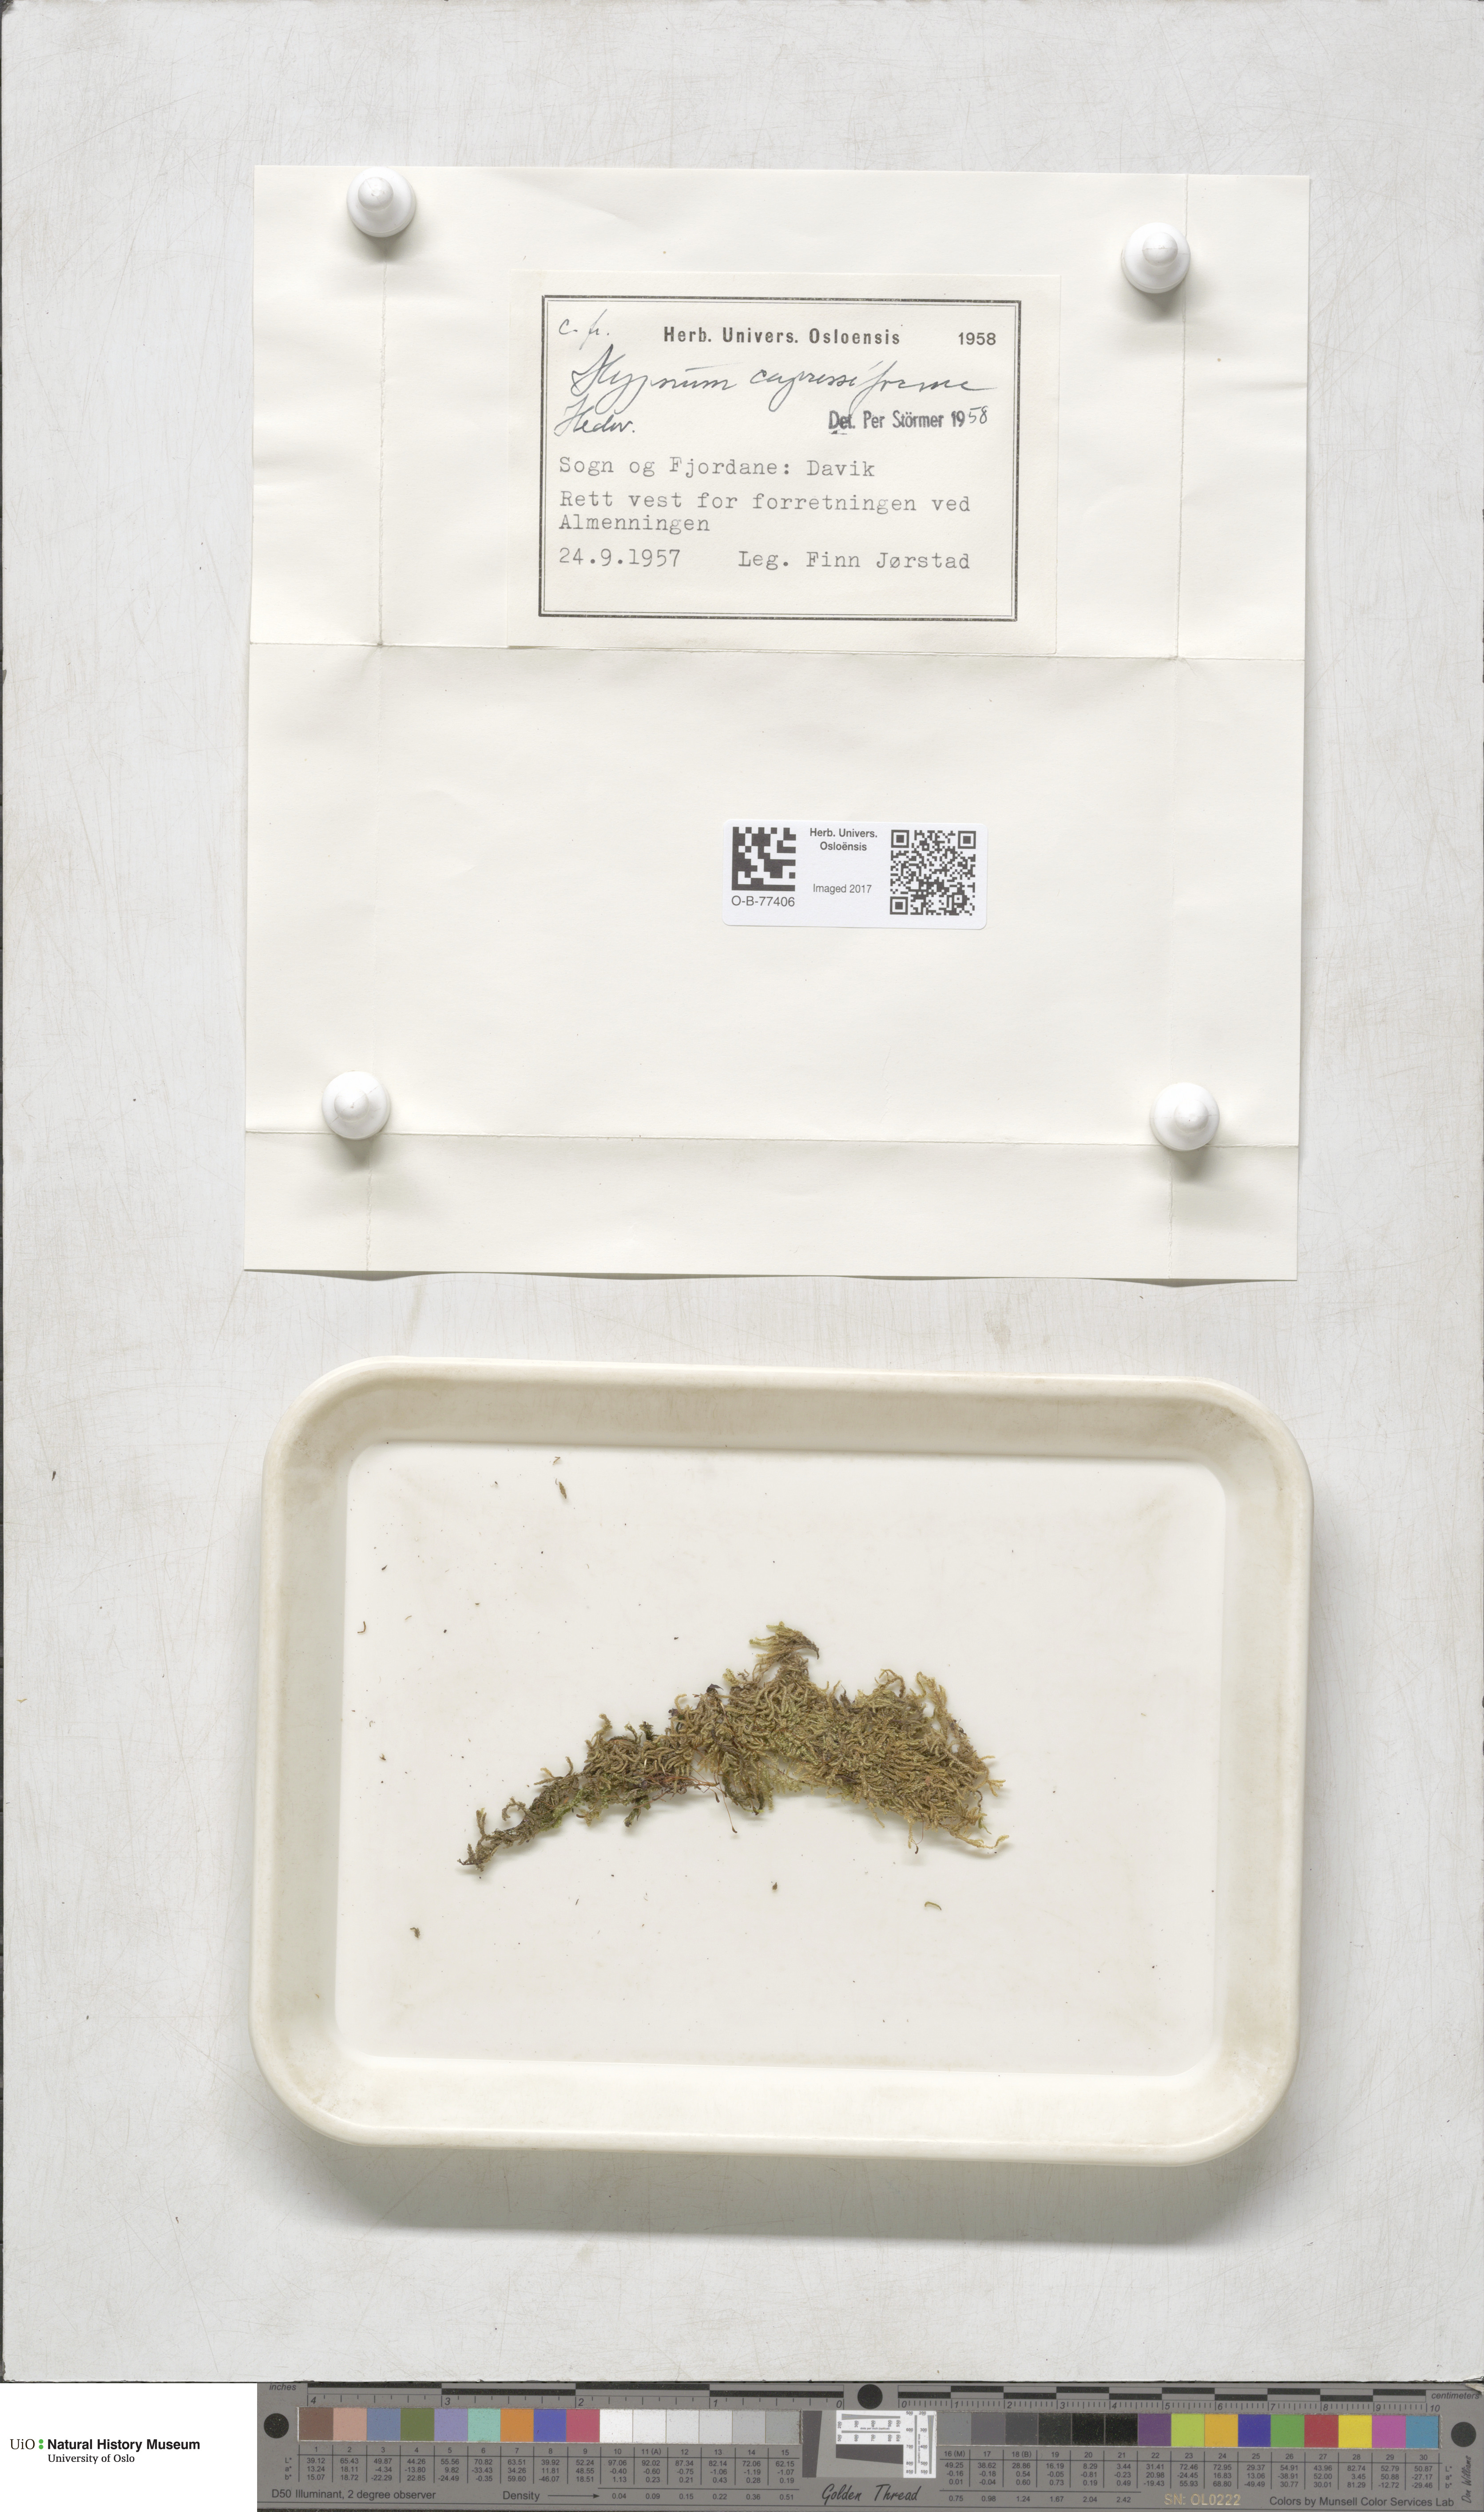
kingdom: Plantae
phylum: Bryophyta
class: Bryopsida
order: Hypnales
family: Hypnaceae
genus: Hypnum
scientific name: Hypnum cupressiforme
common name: Cypress-leaved plait-moss
